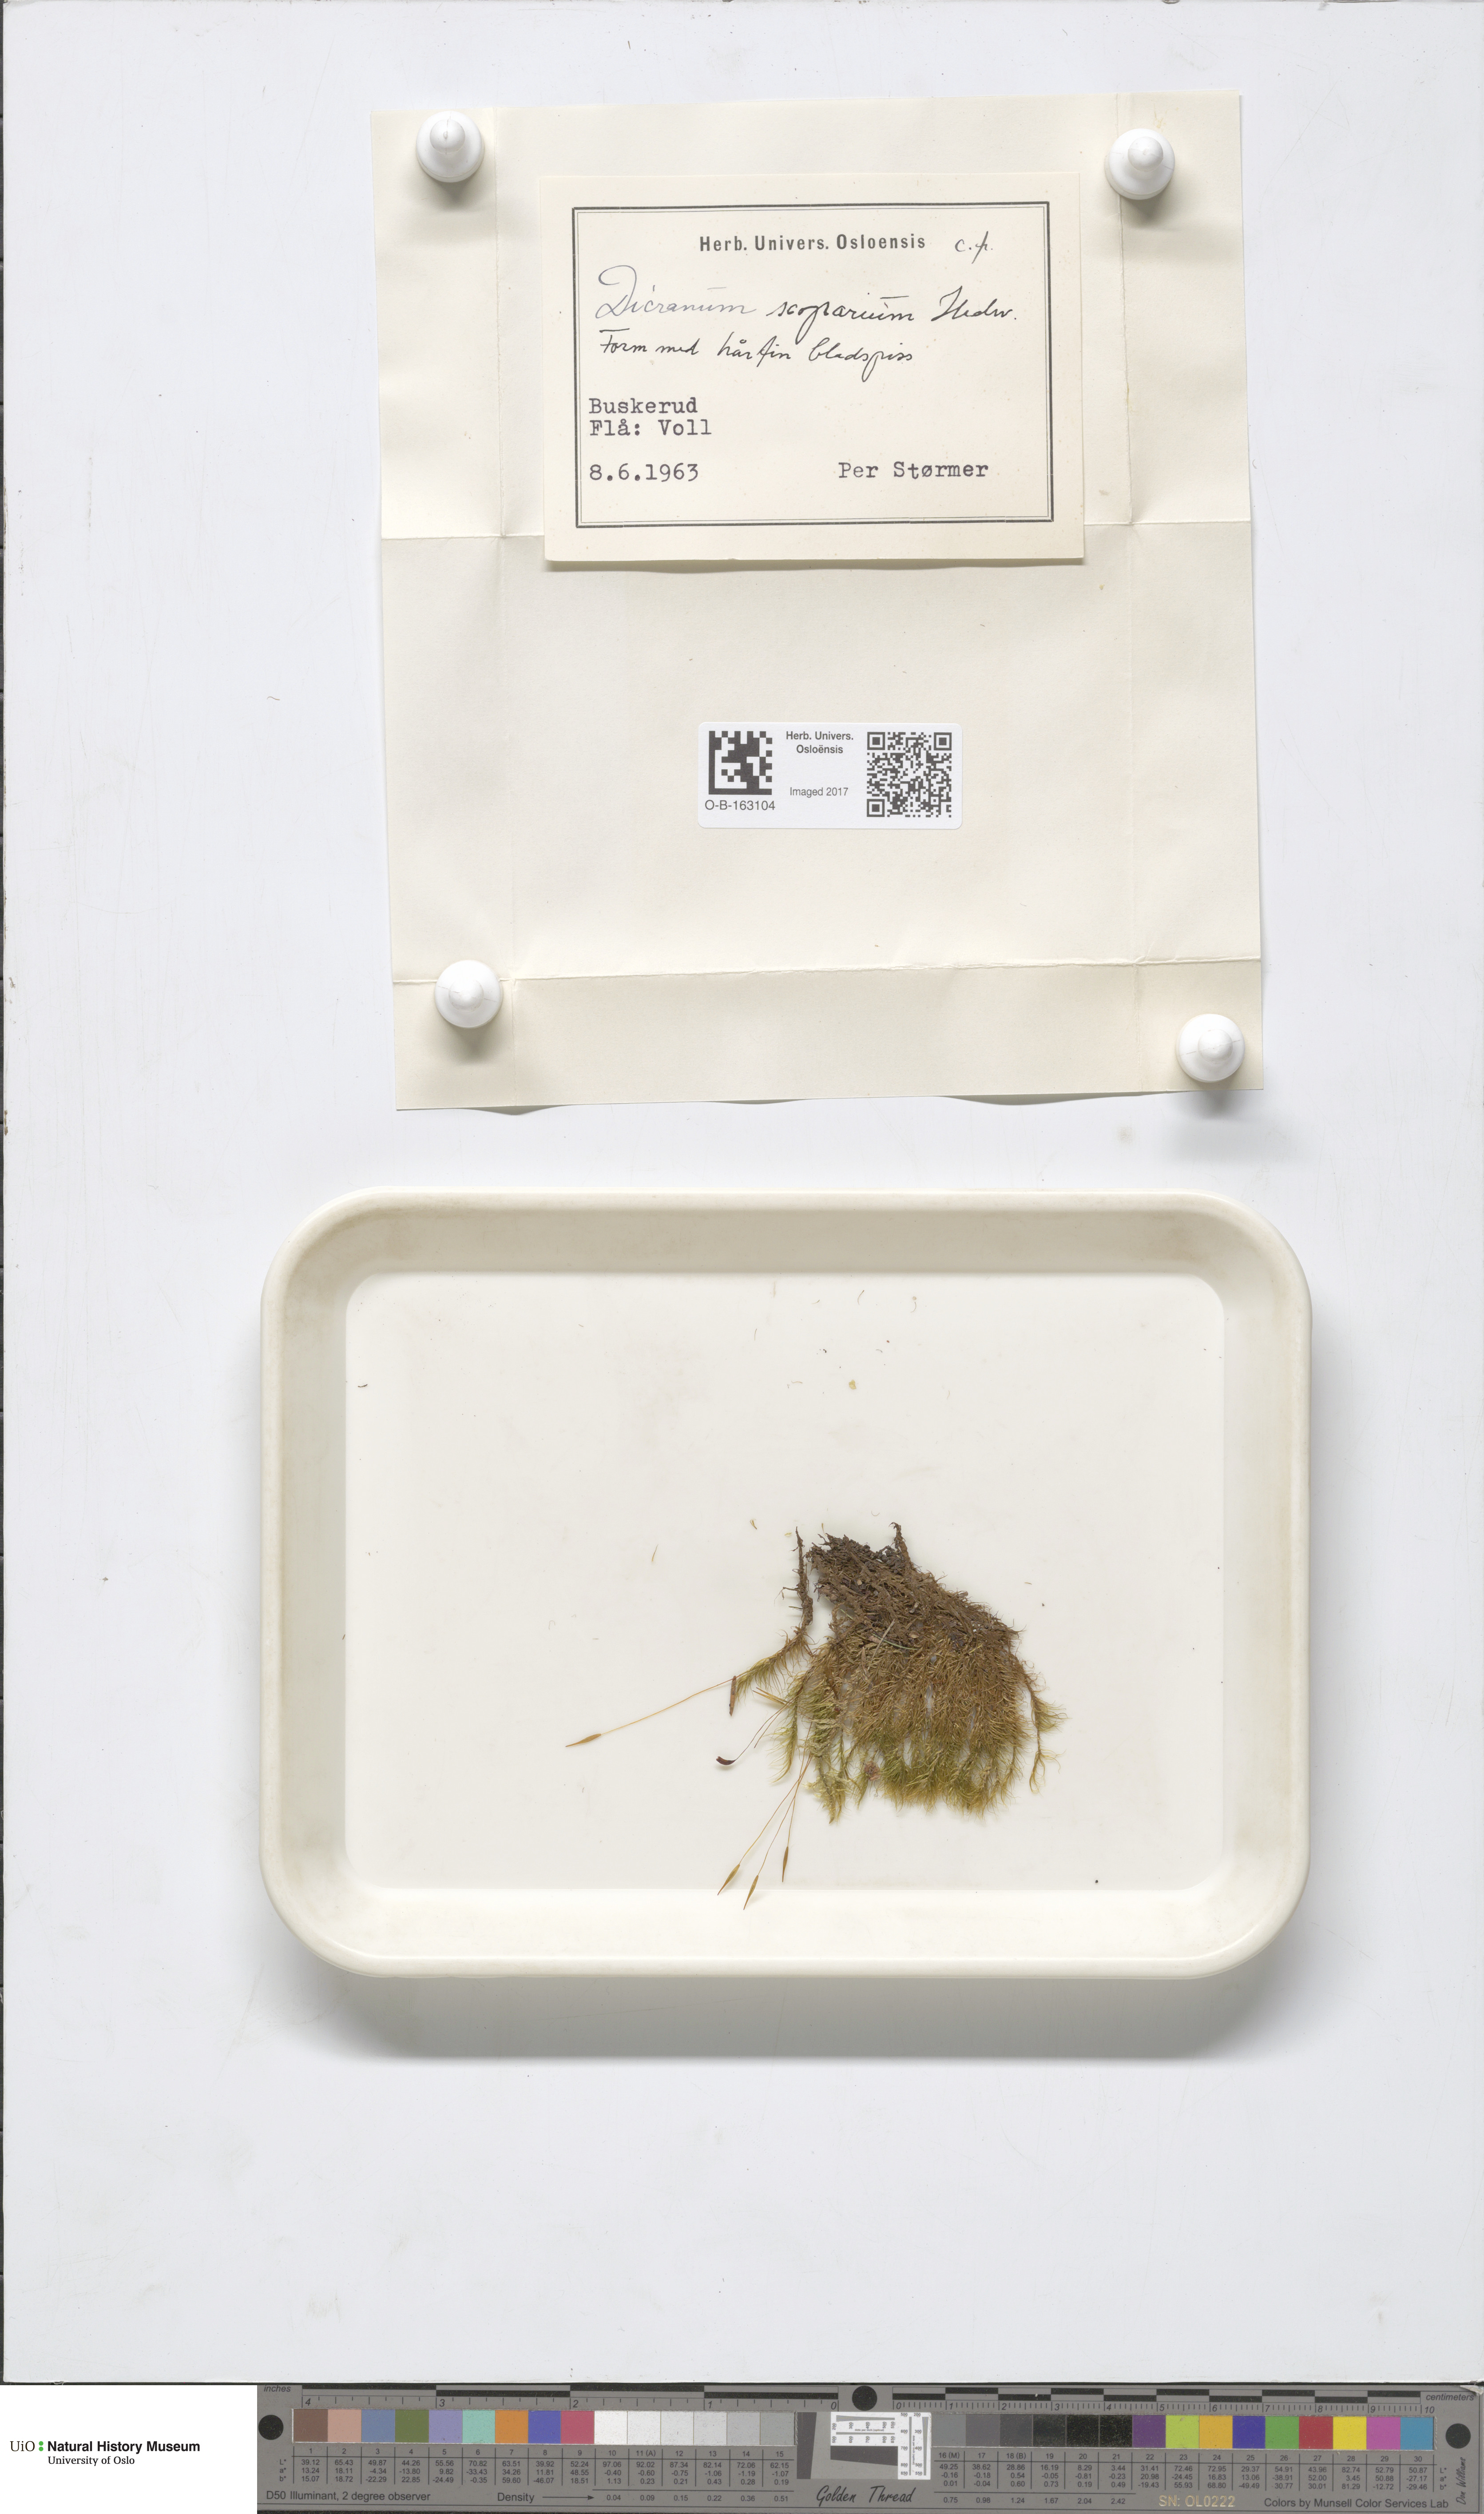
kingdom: Plantae
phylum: Bryophyta
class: Bryopsida
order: Dicranales
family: Dicranaceae
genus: Dicranum
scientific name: Dicranum scoparium
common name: Broom fork-moss
